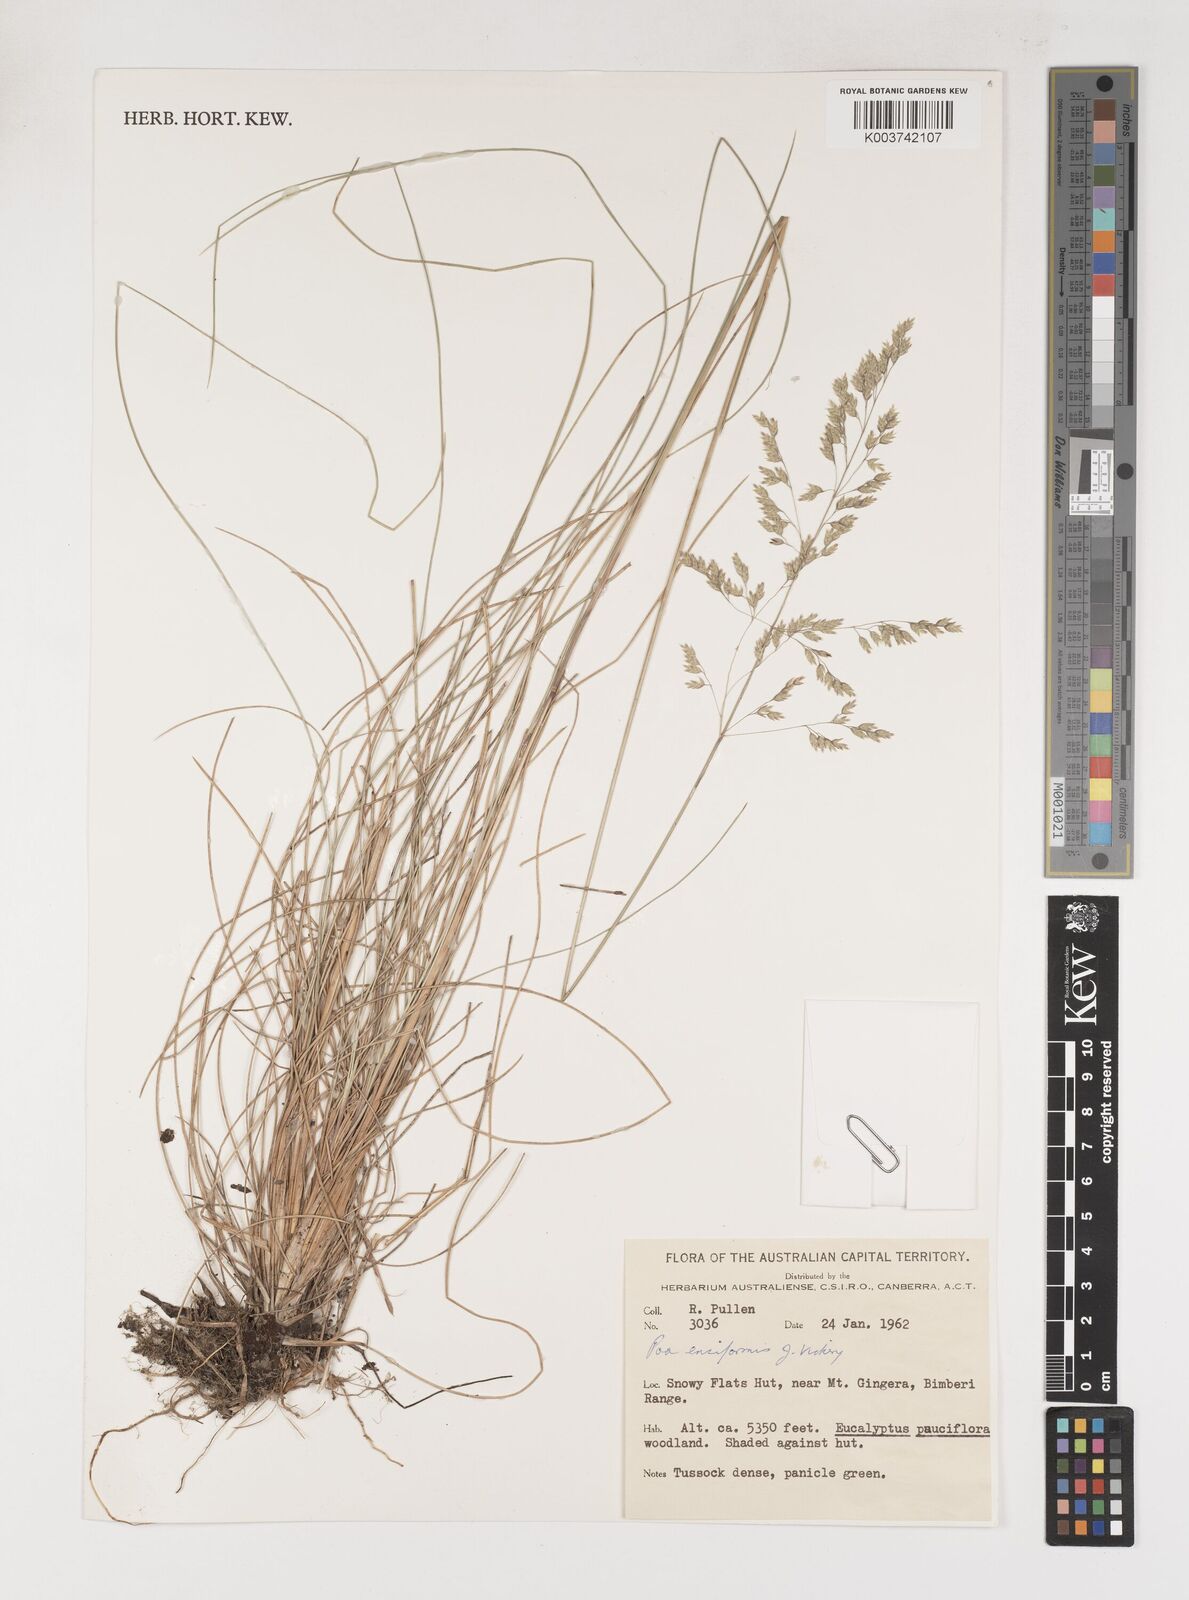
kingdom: Plantae
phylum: Tracheophyta
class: Liliopsida
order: Poales
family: Poaceae
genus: Poa
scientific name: Poa ensiformis
